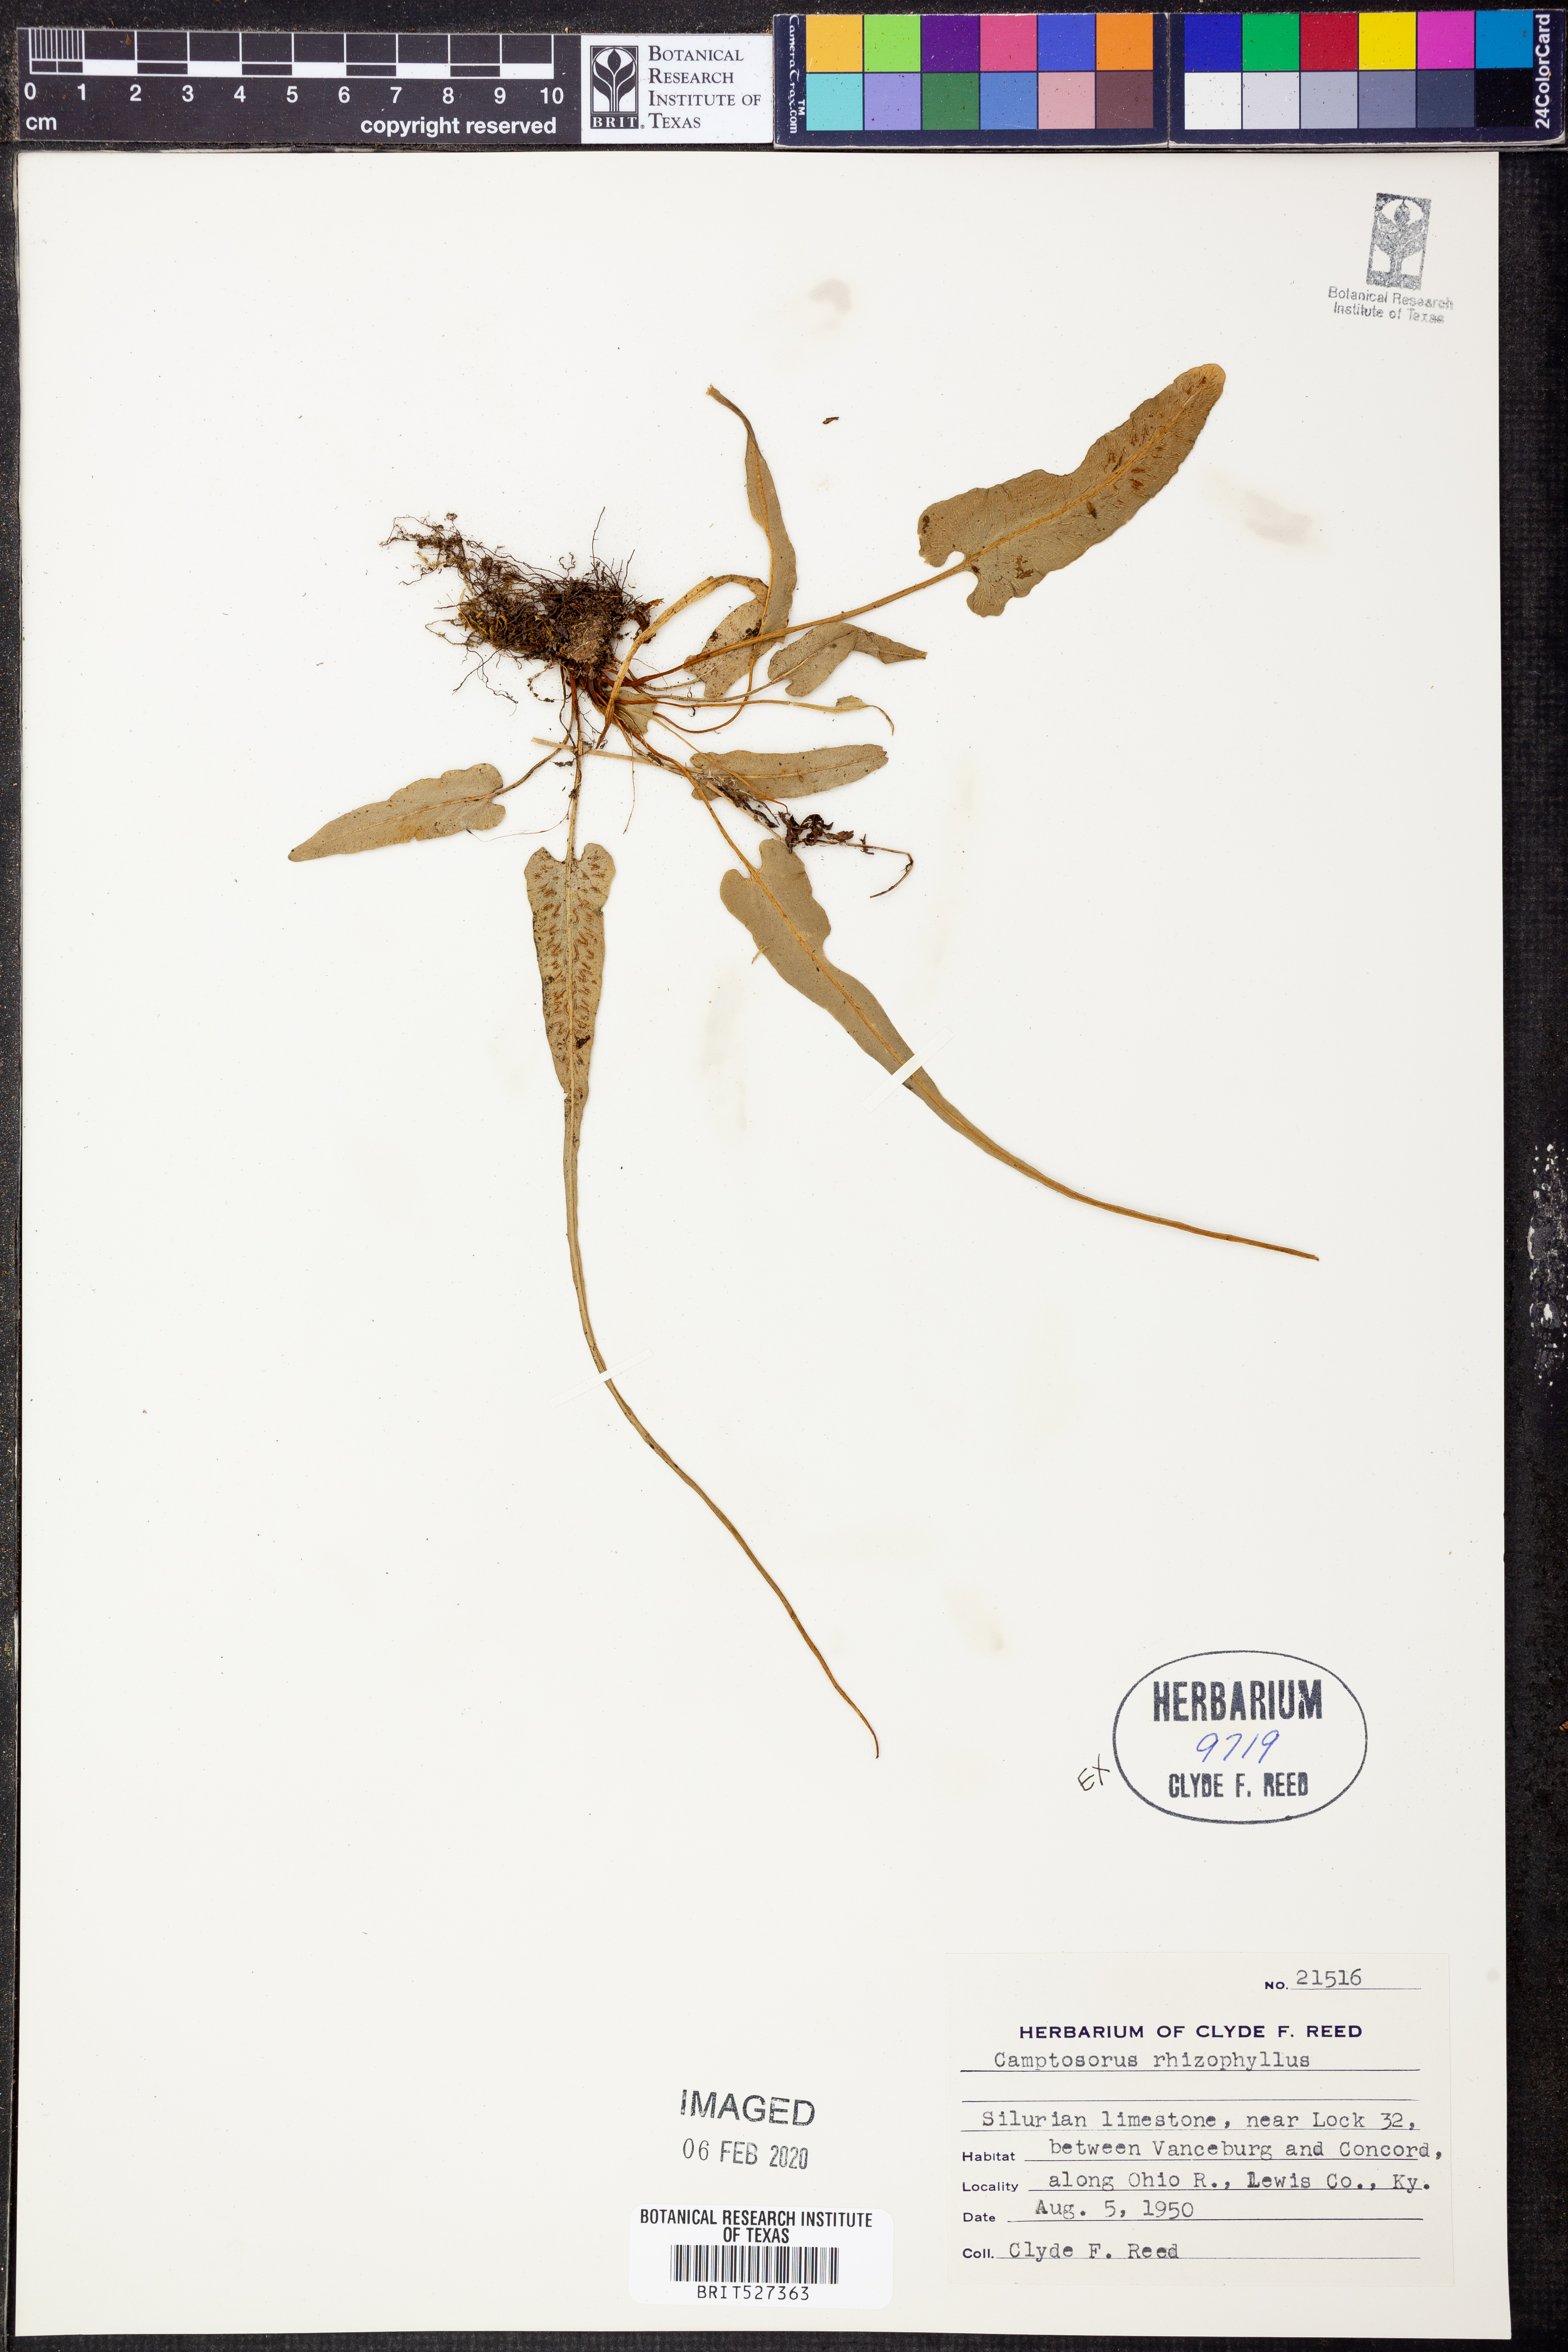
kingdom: Plantae
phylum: Tracheophyta
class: Polypodiopsida
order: Polypodiales
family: Aspleniaceae
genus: Asplenium
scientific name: Asplenium rhizophyllum
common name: Walking fern
